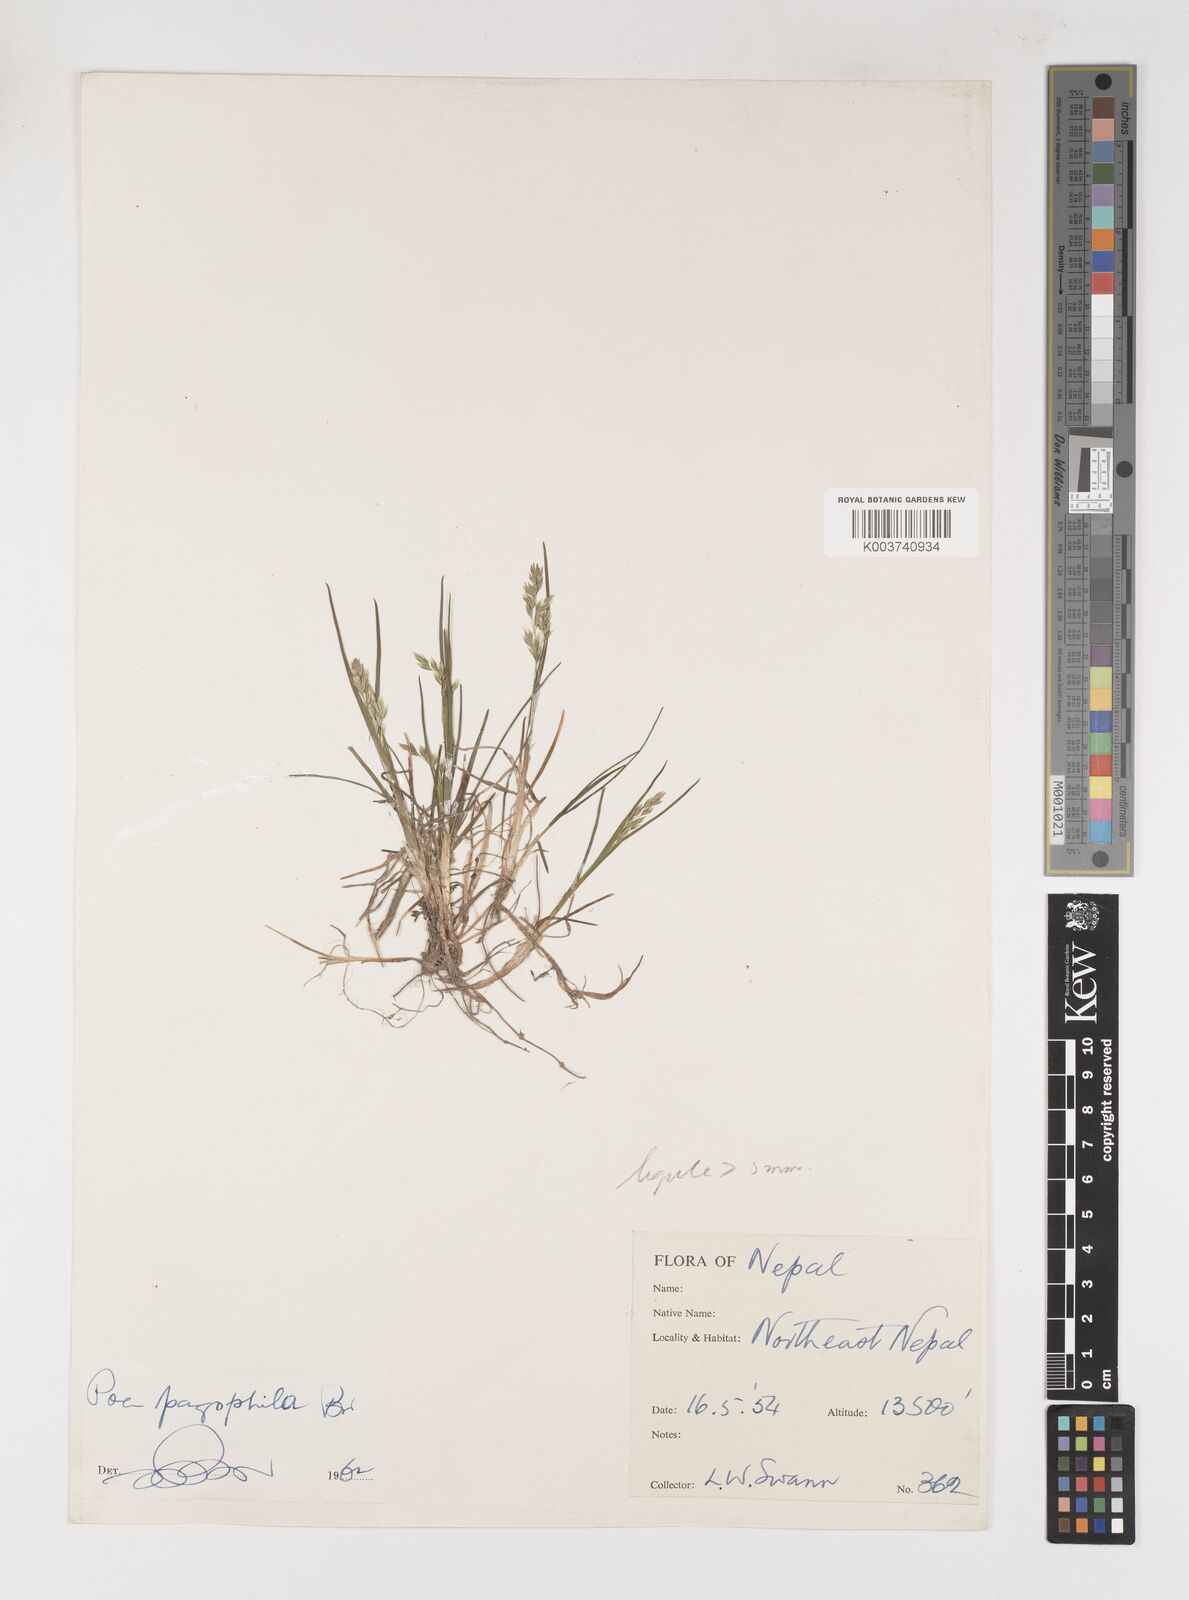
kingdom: Plantae
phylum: Tracheophyta
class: Liliopsida
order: Poales
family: Poaceae
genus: Poa
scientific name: Poa pagophila
